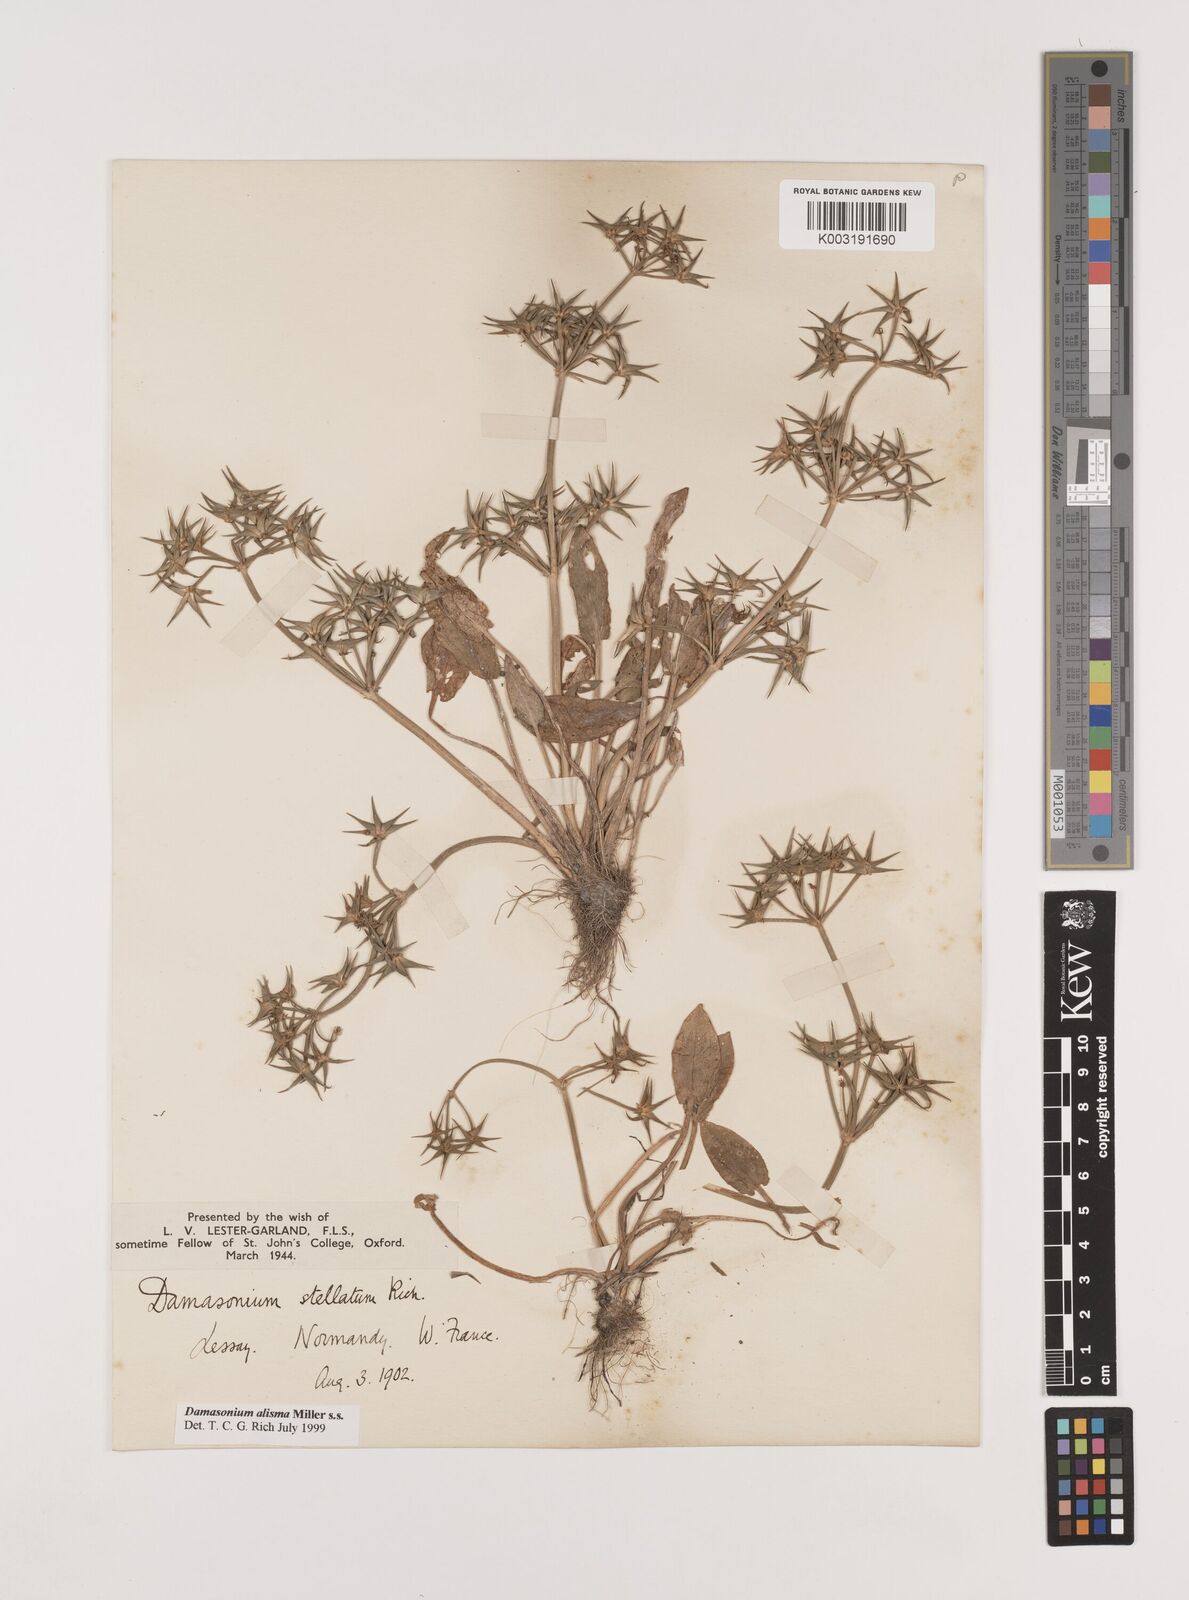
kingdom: Plantae
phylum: Tracheophyta
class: Liliopsida
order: Alismatales
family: Alismataceae
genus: Damasonium
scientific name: Damasonium alisma
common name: Starfruit
